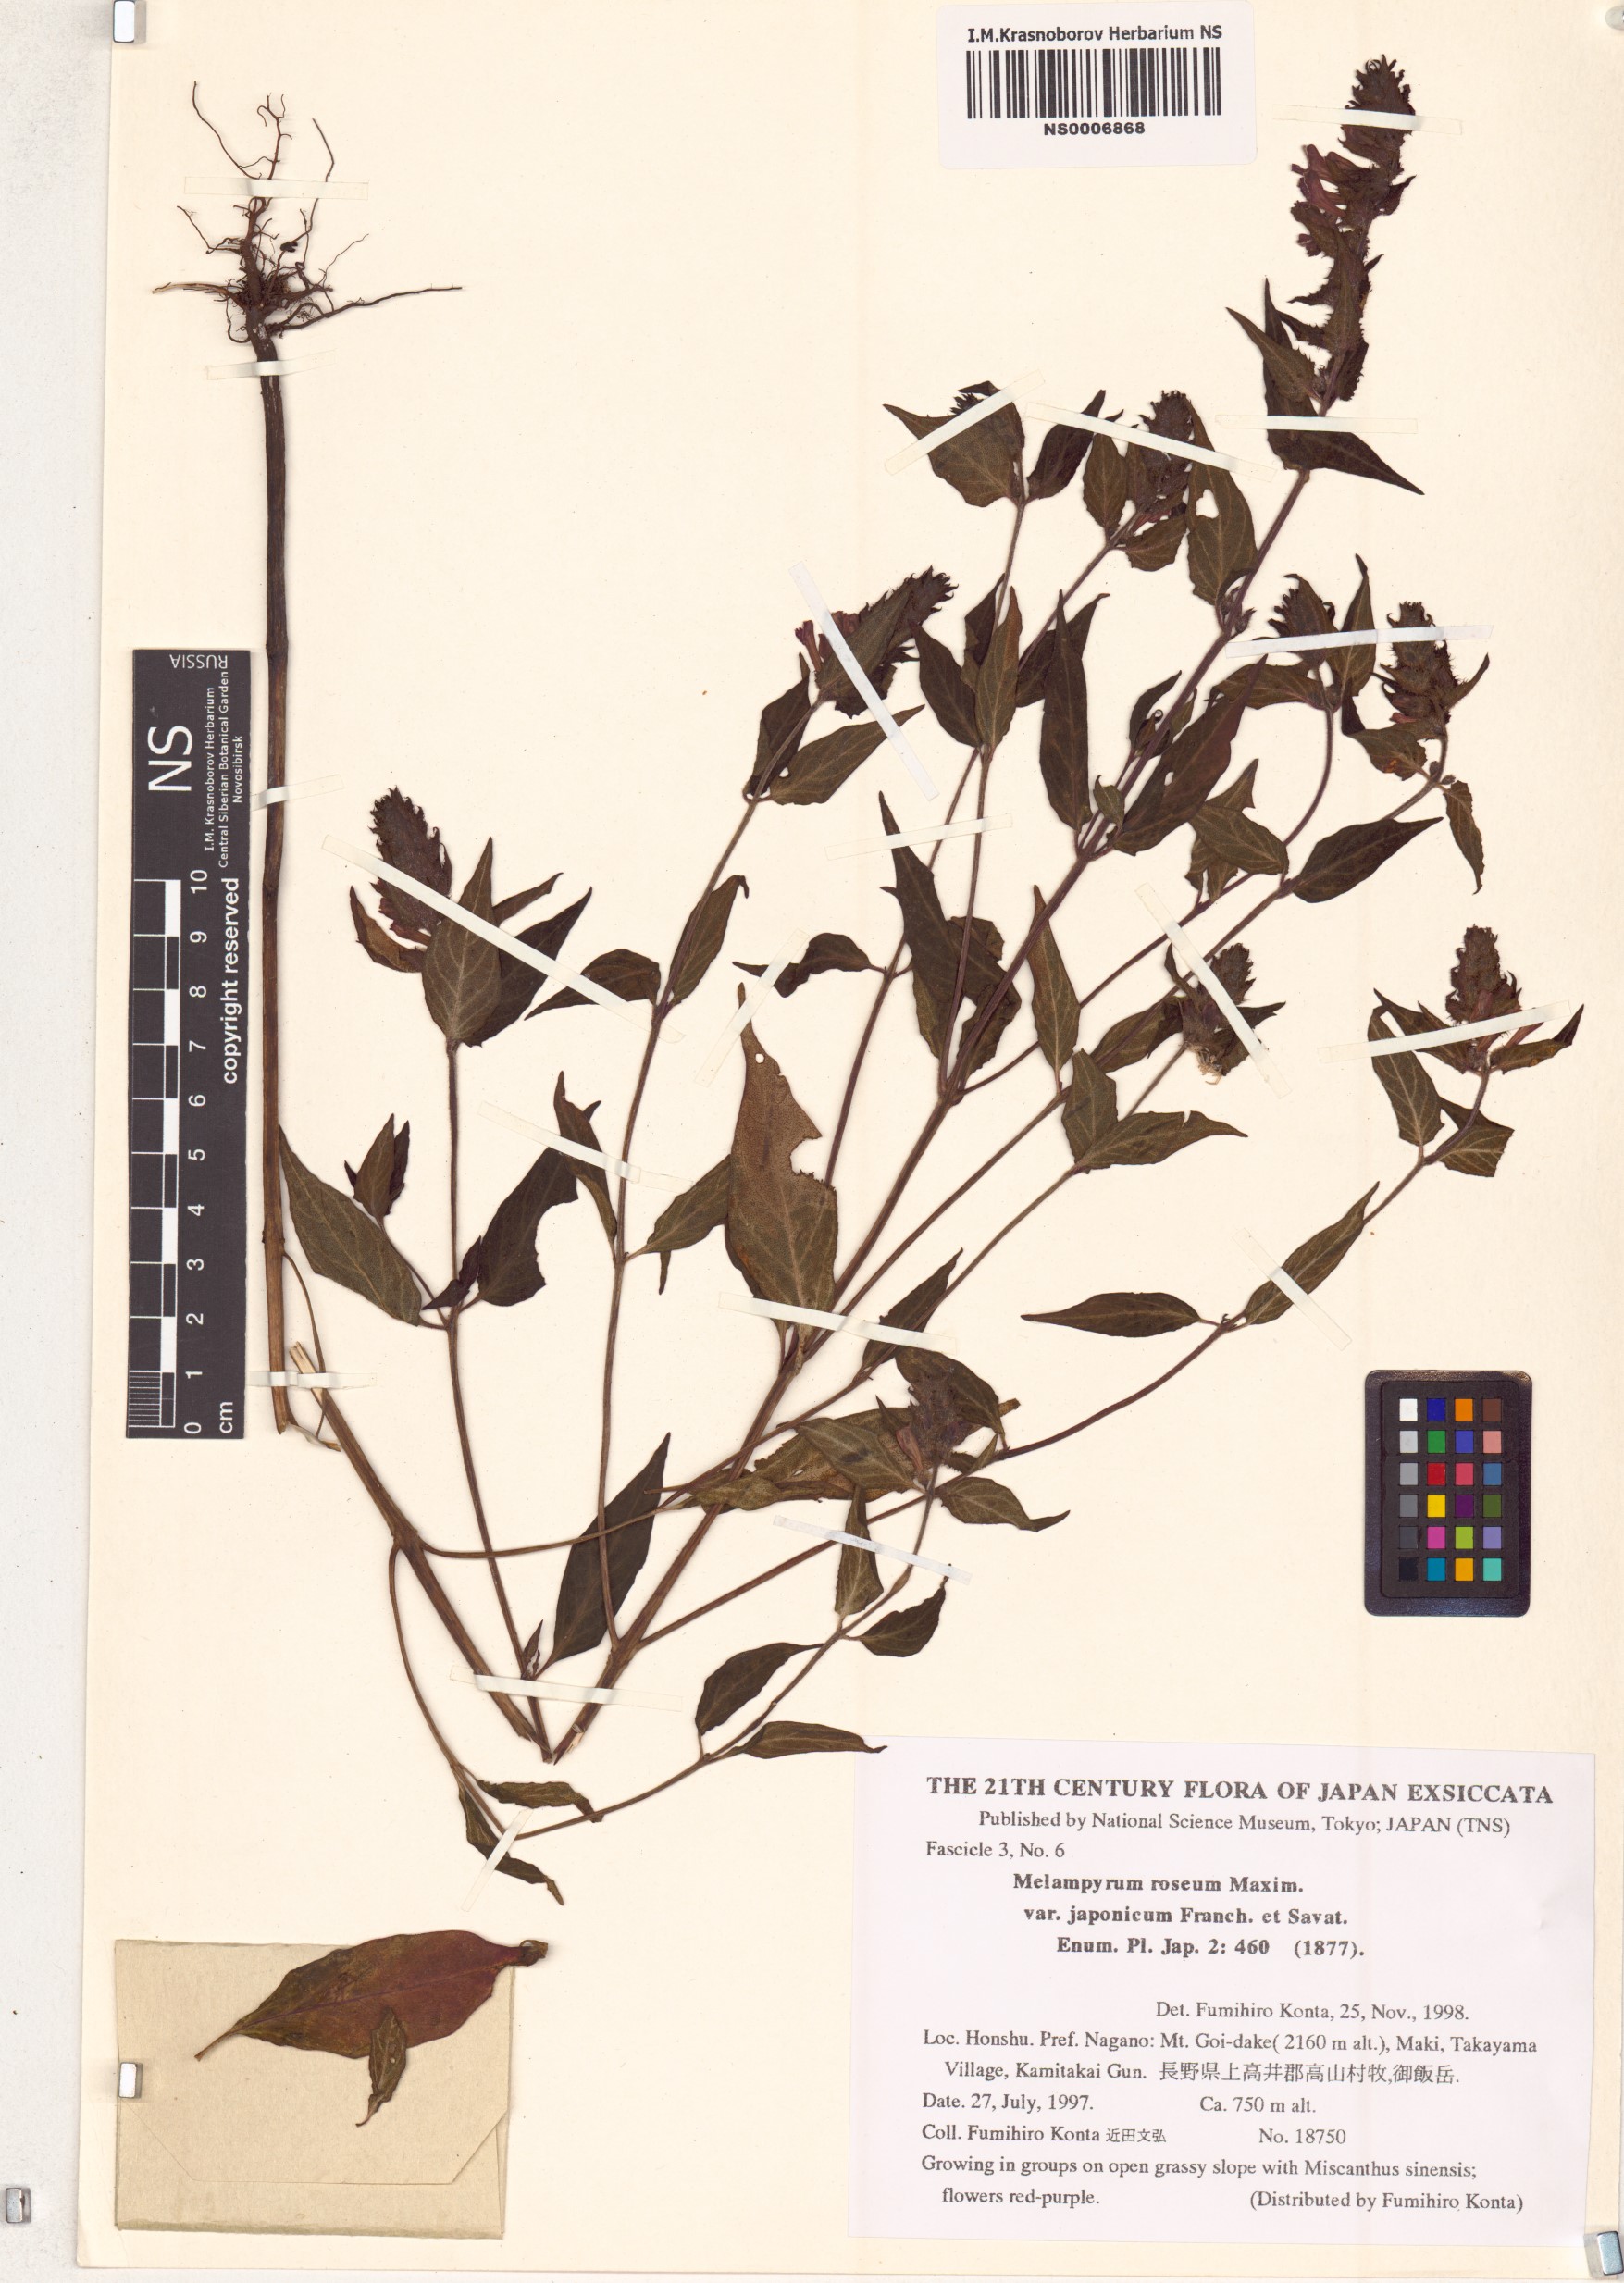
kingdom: Plantae
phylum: Tracheophyta
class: Magnoliopsida
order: Lamiales
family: Orobanchaceae
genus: Melampyrum
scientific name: Melampyrum roseum
